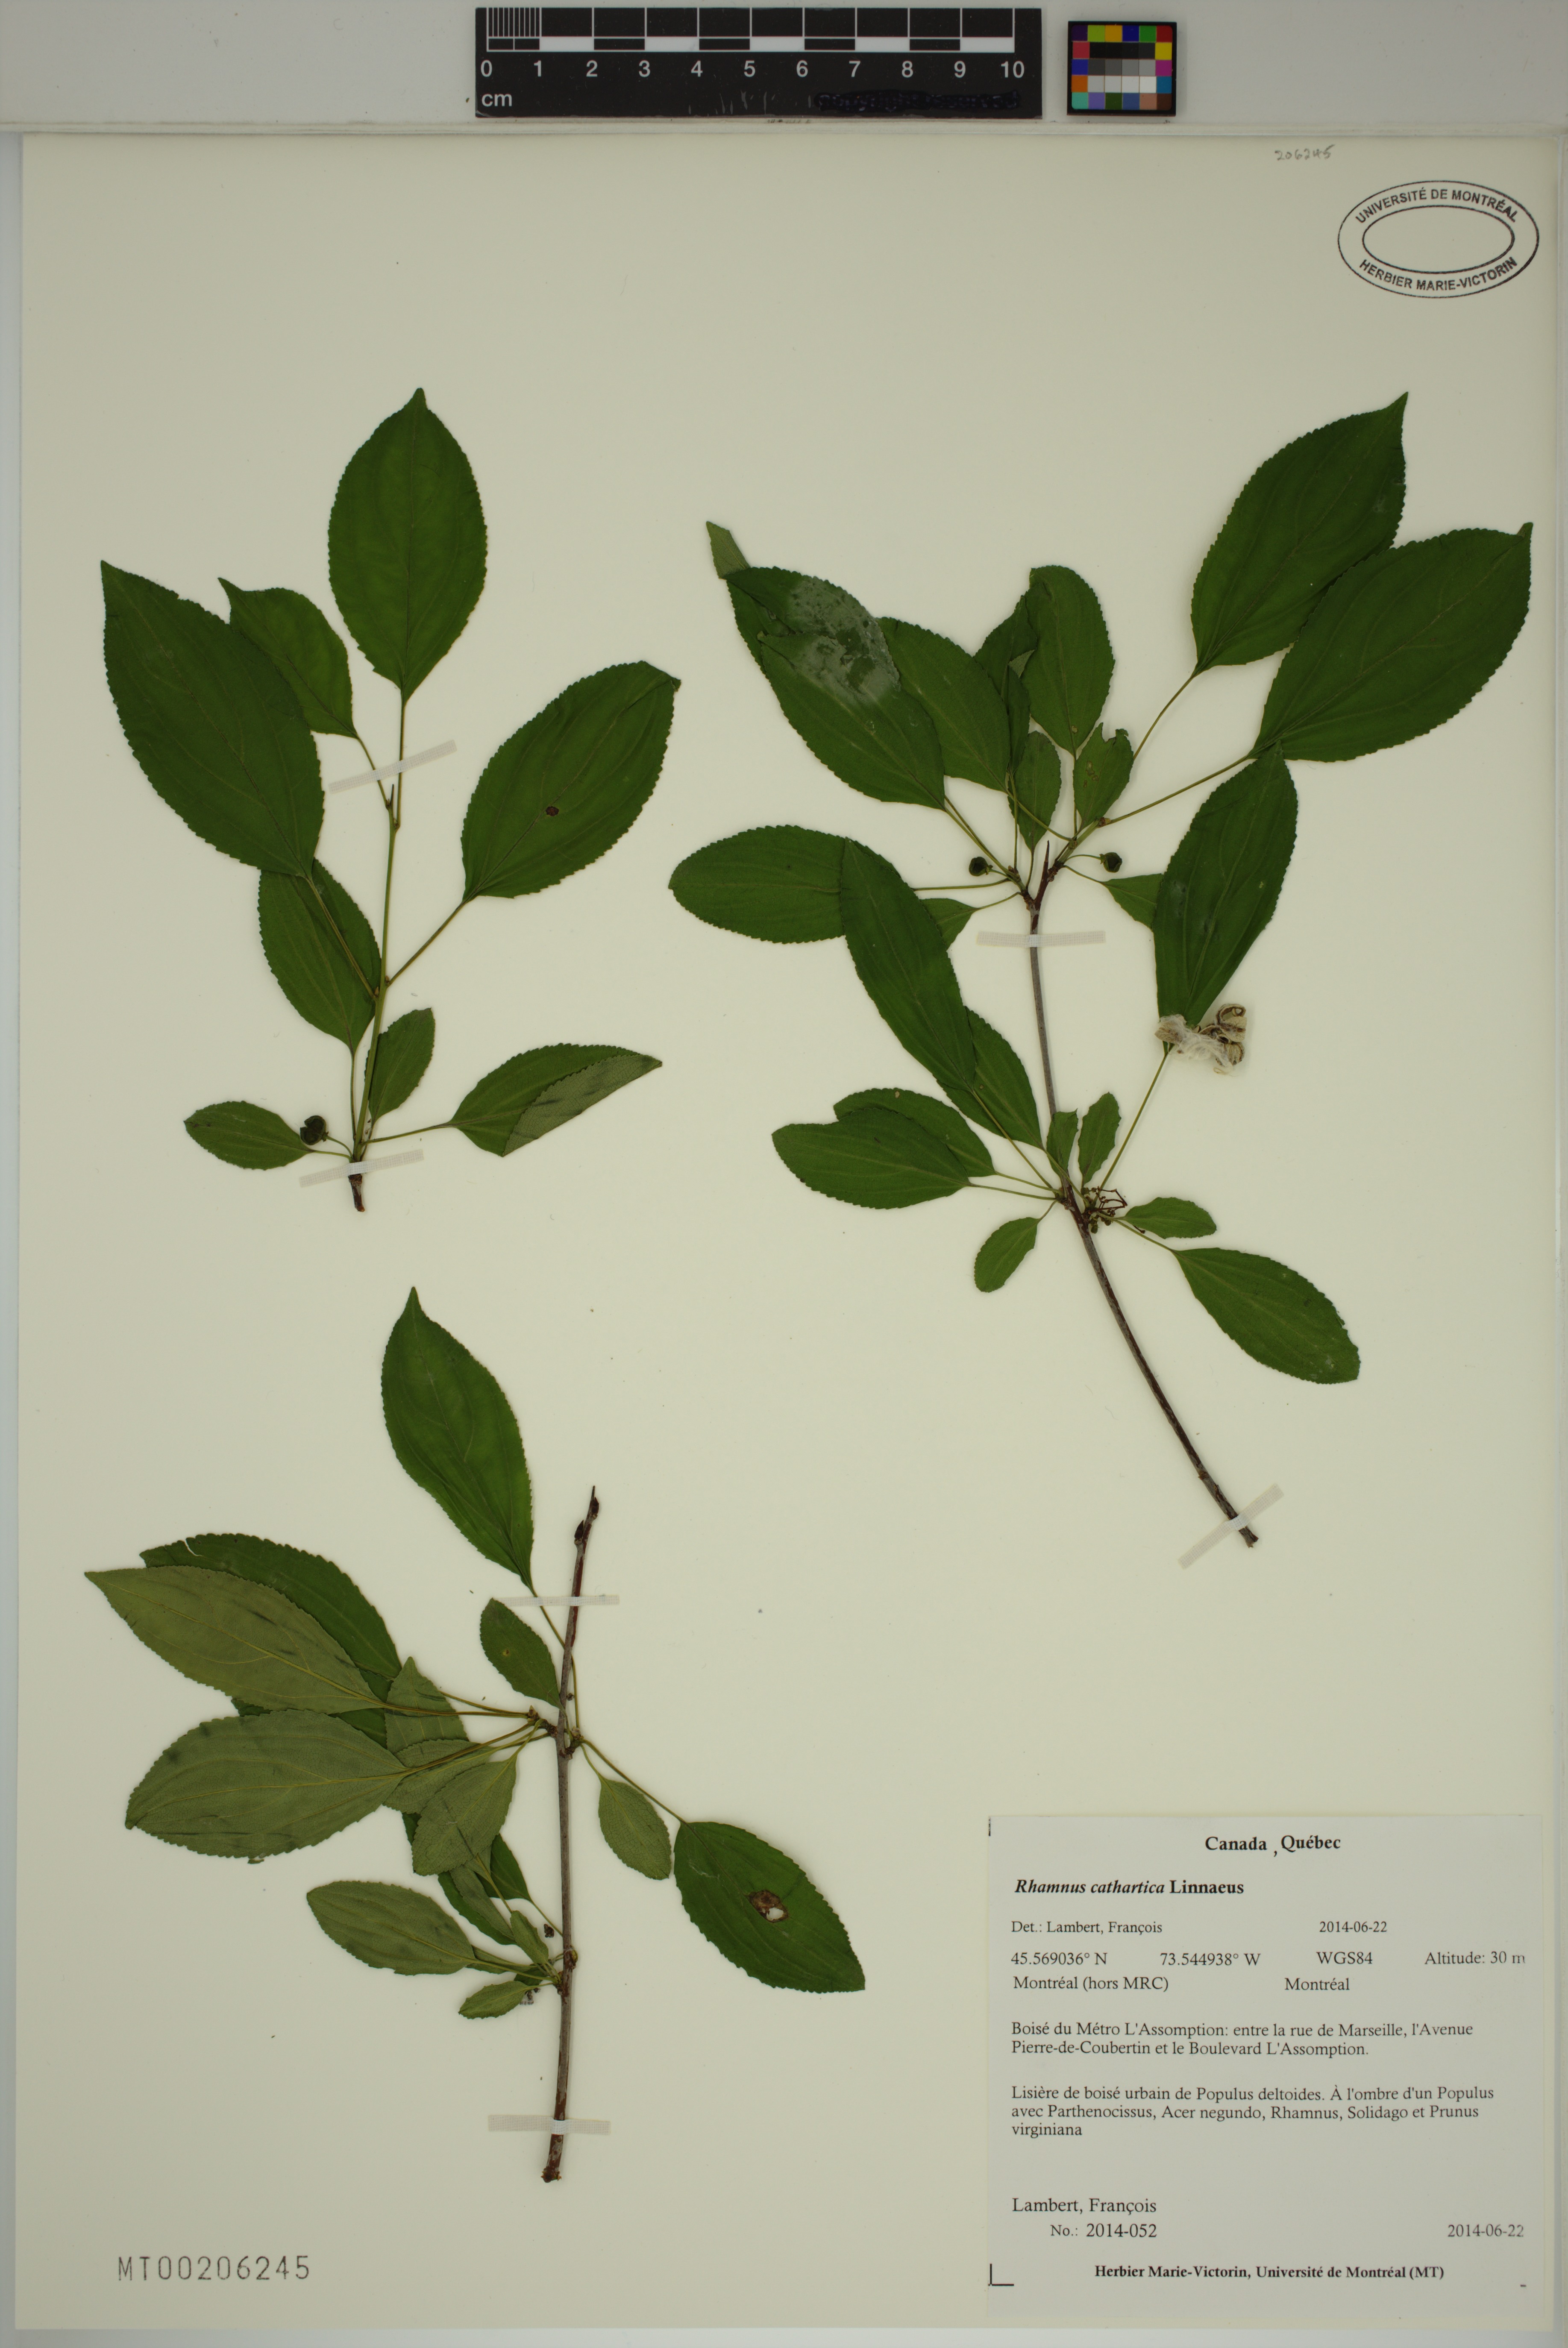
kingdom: Plantae
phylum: Tracheophyta
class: Magnoliopsida
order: Rosales
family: Rhamnaceae
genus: Rhamnus
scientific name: Rhamnus cathartica
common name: Common buckthorn
